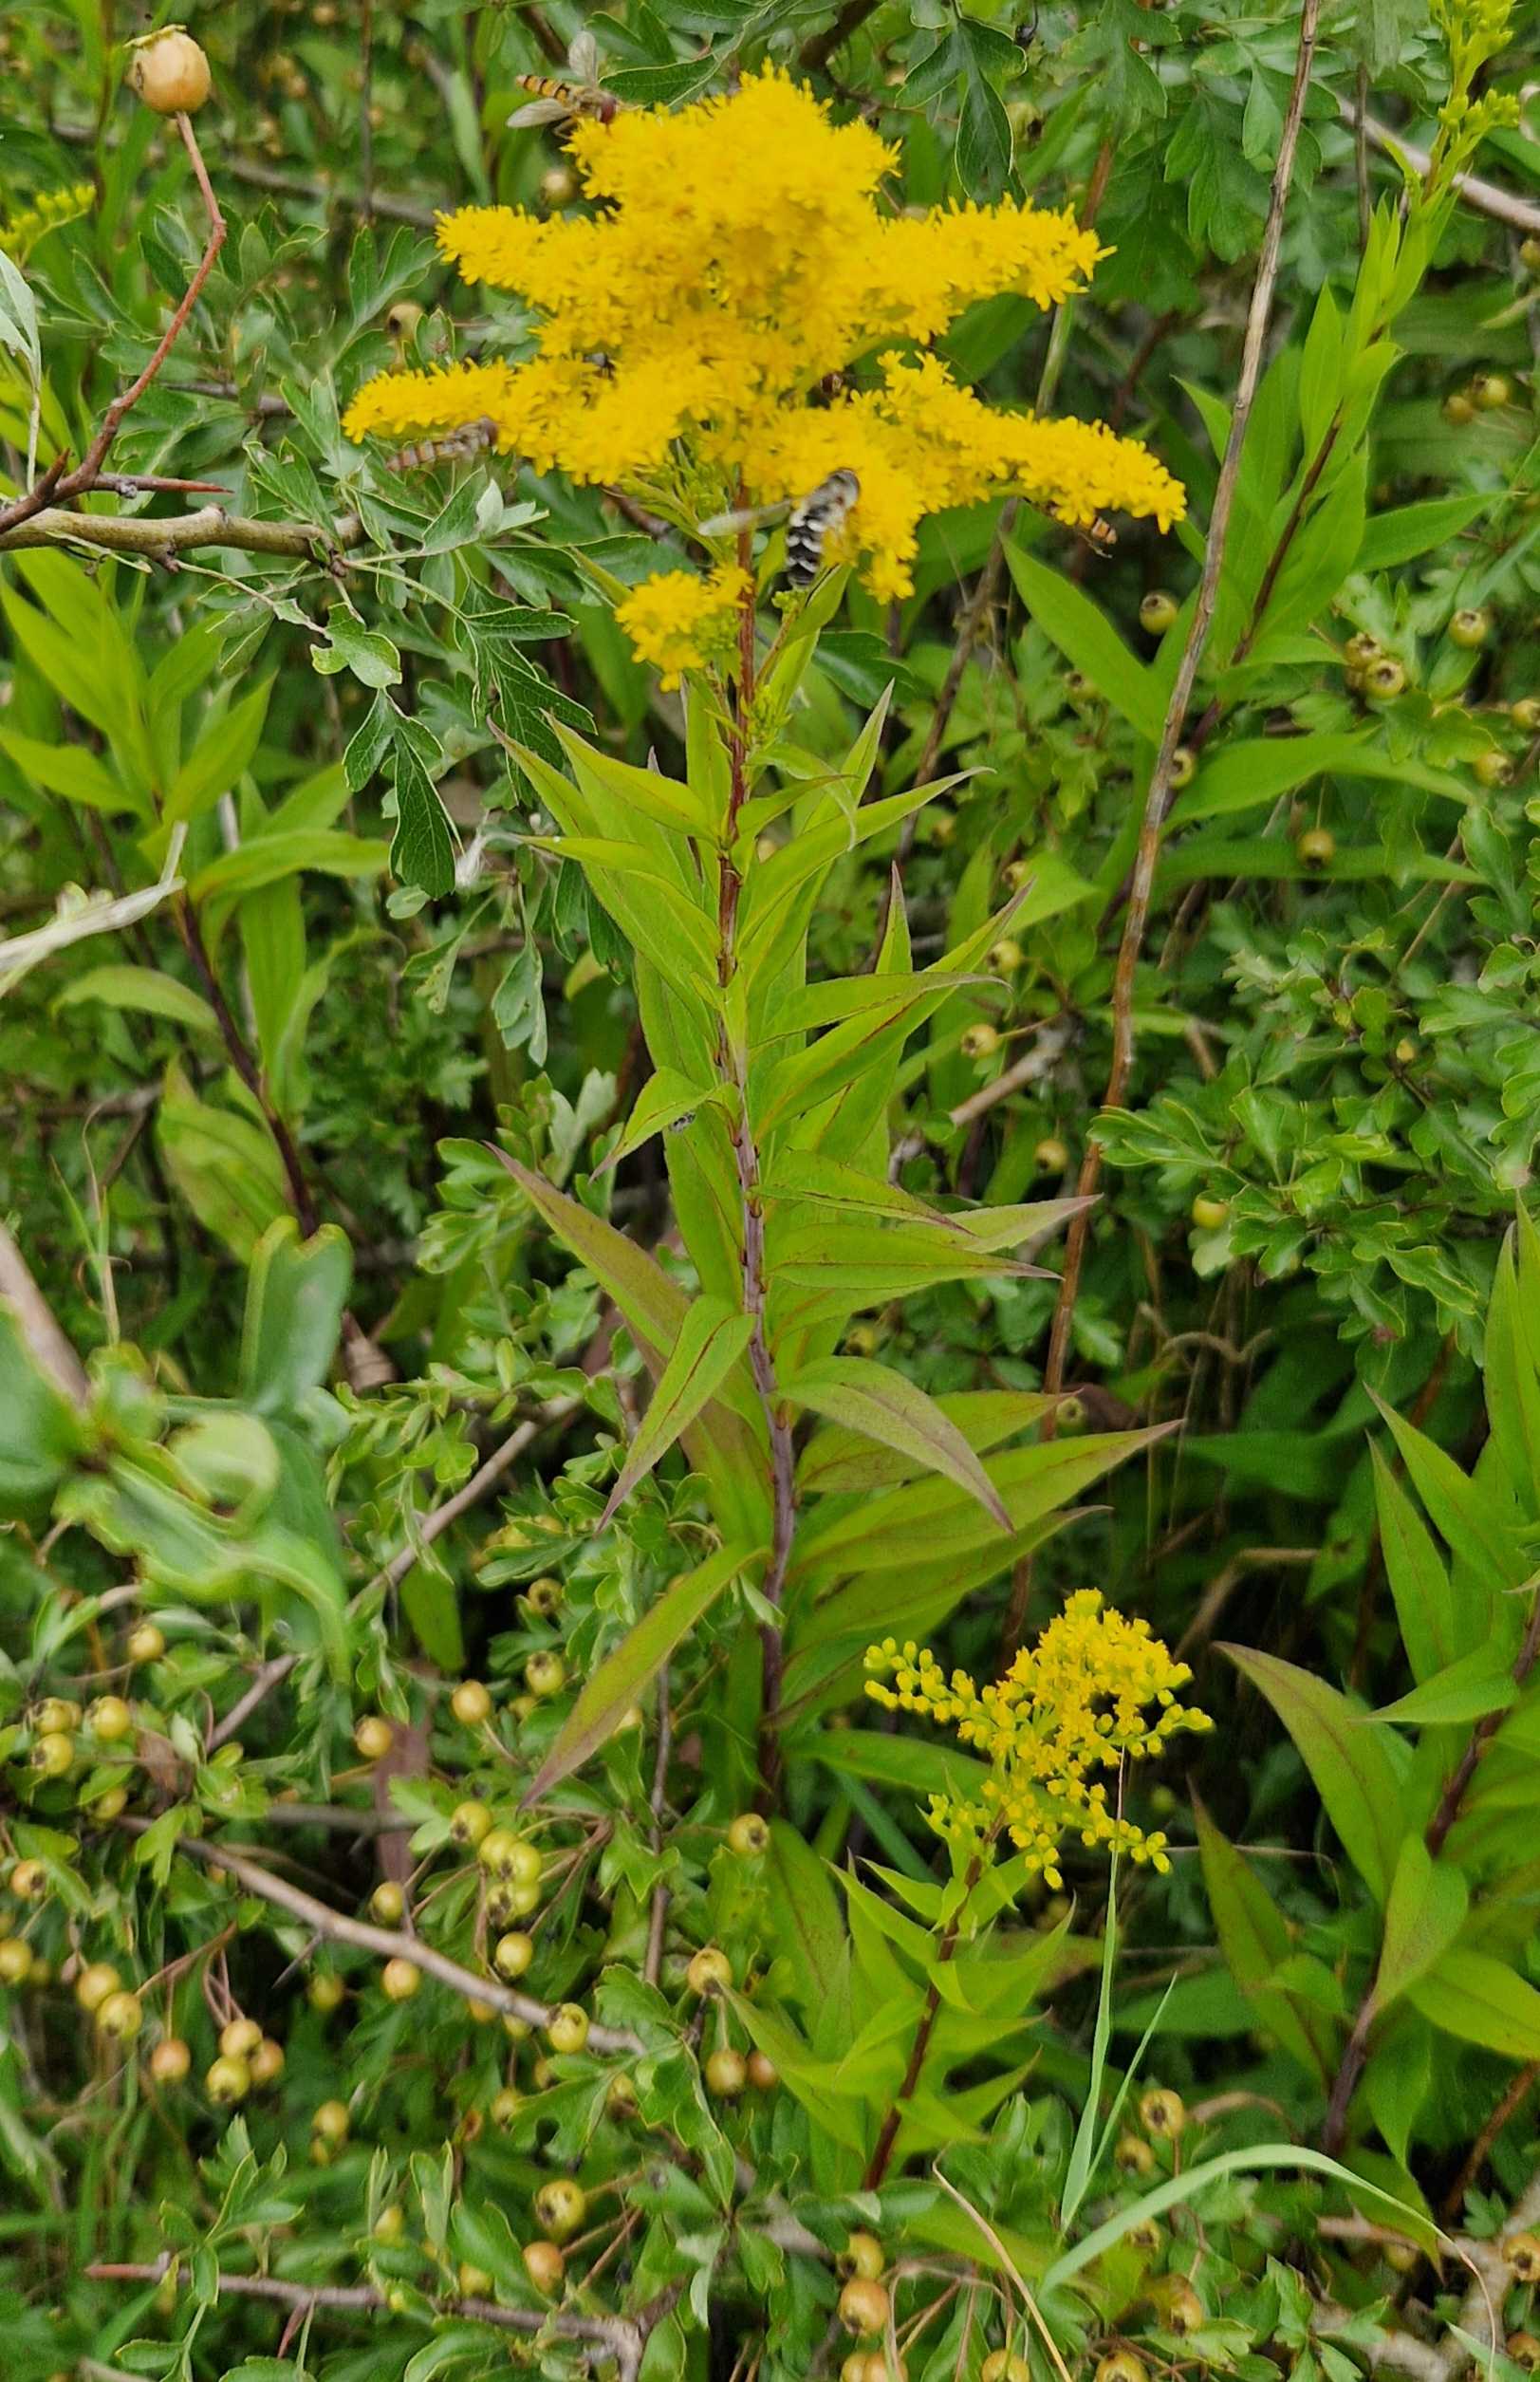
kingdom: Plantae
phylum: Tracheophyta
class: Magnoliopsida
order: Asterales
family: Asteraceae
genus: Solidago
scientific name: Solidago gigantea
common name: Sildig gyldenris
